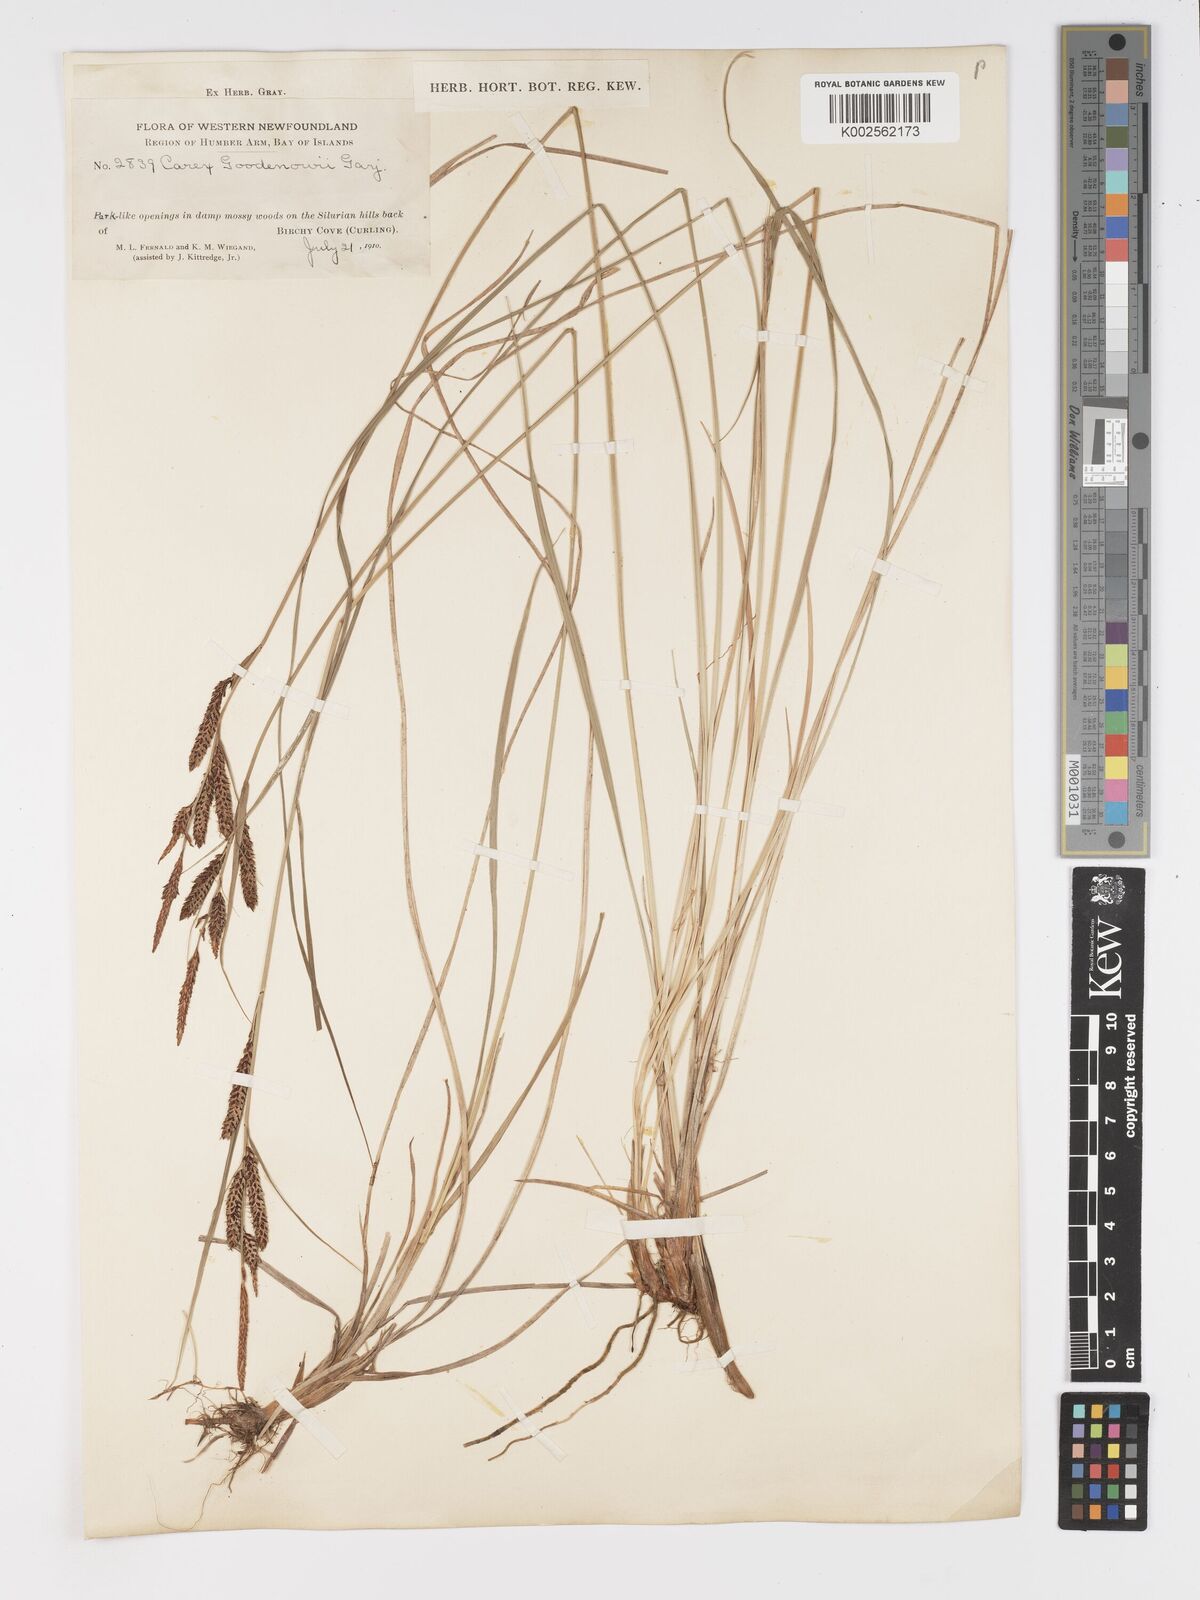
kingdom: Plantae
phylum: Tracheophyta
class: Liliopsida
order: Poales
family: Cyperaceae
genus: Carex
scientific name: Carex nigra
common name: Common sedge
